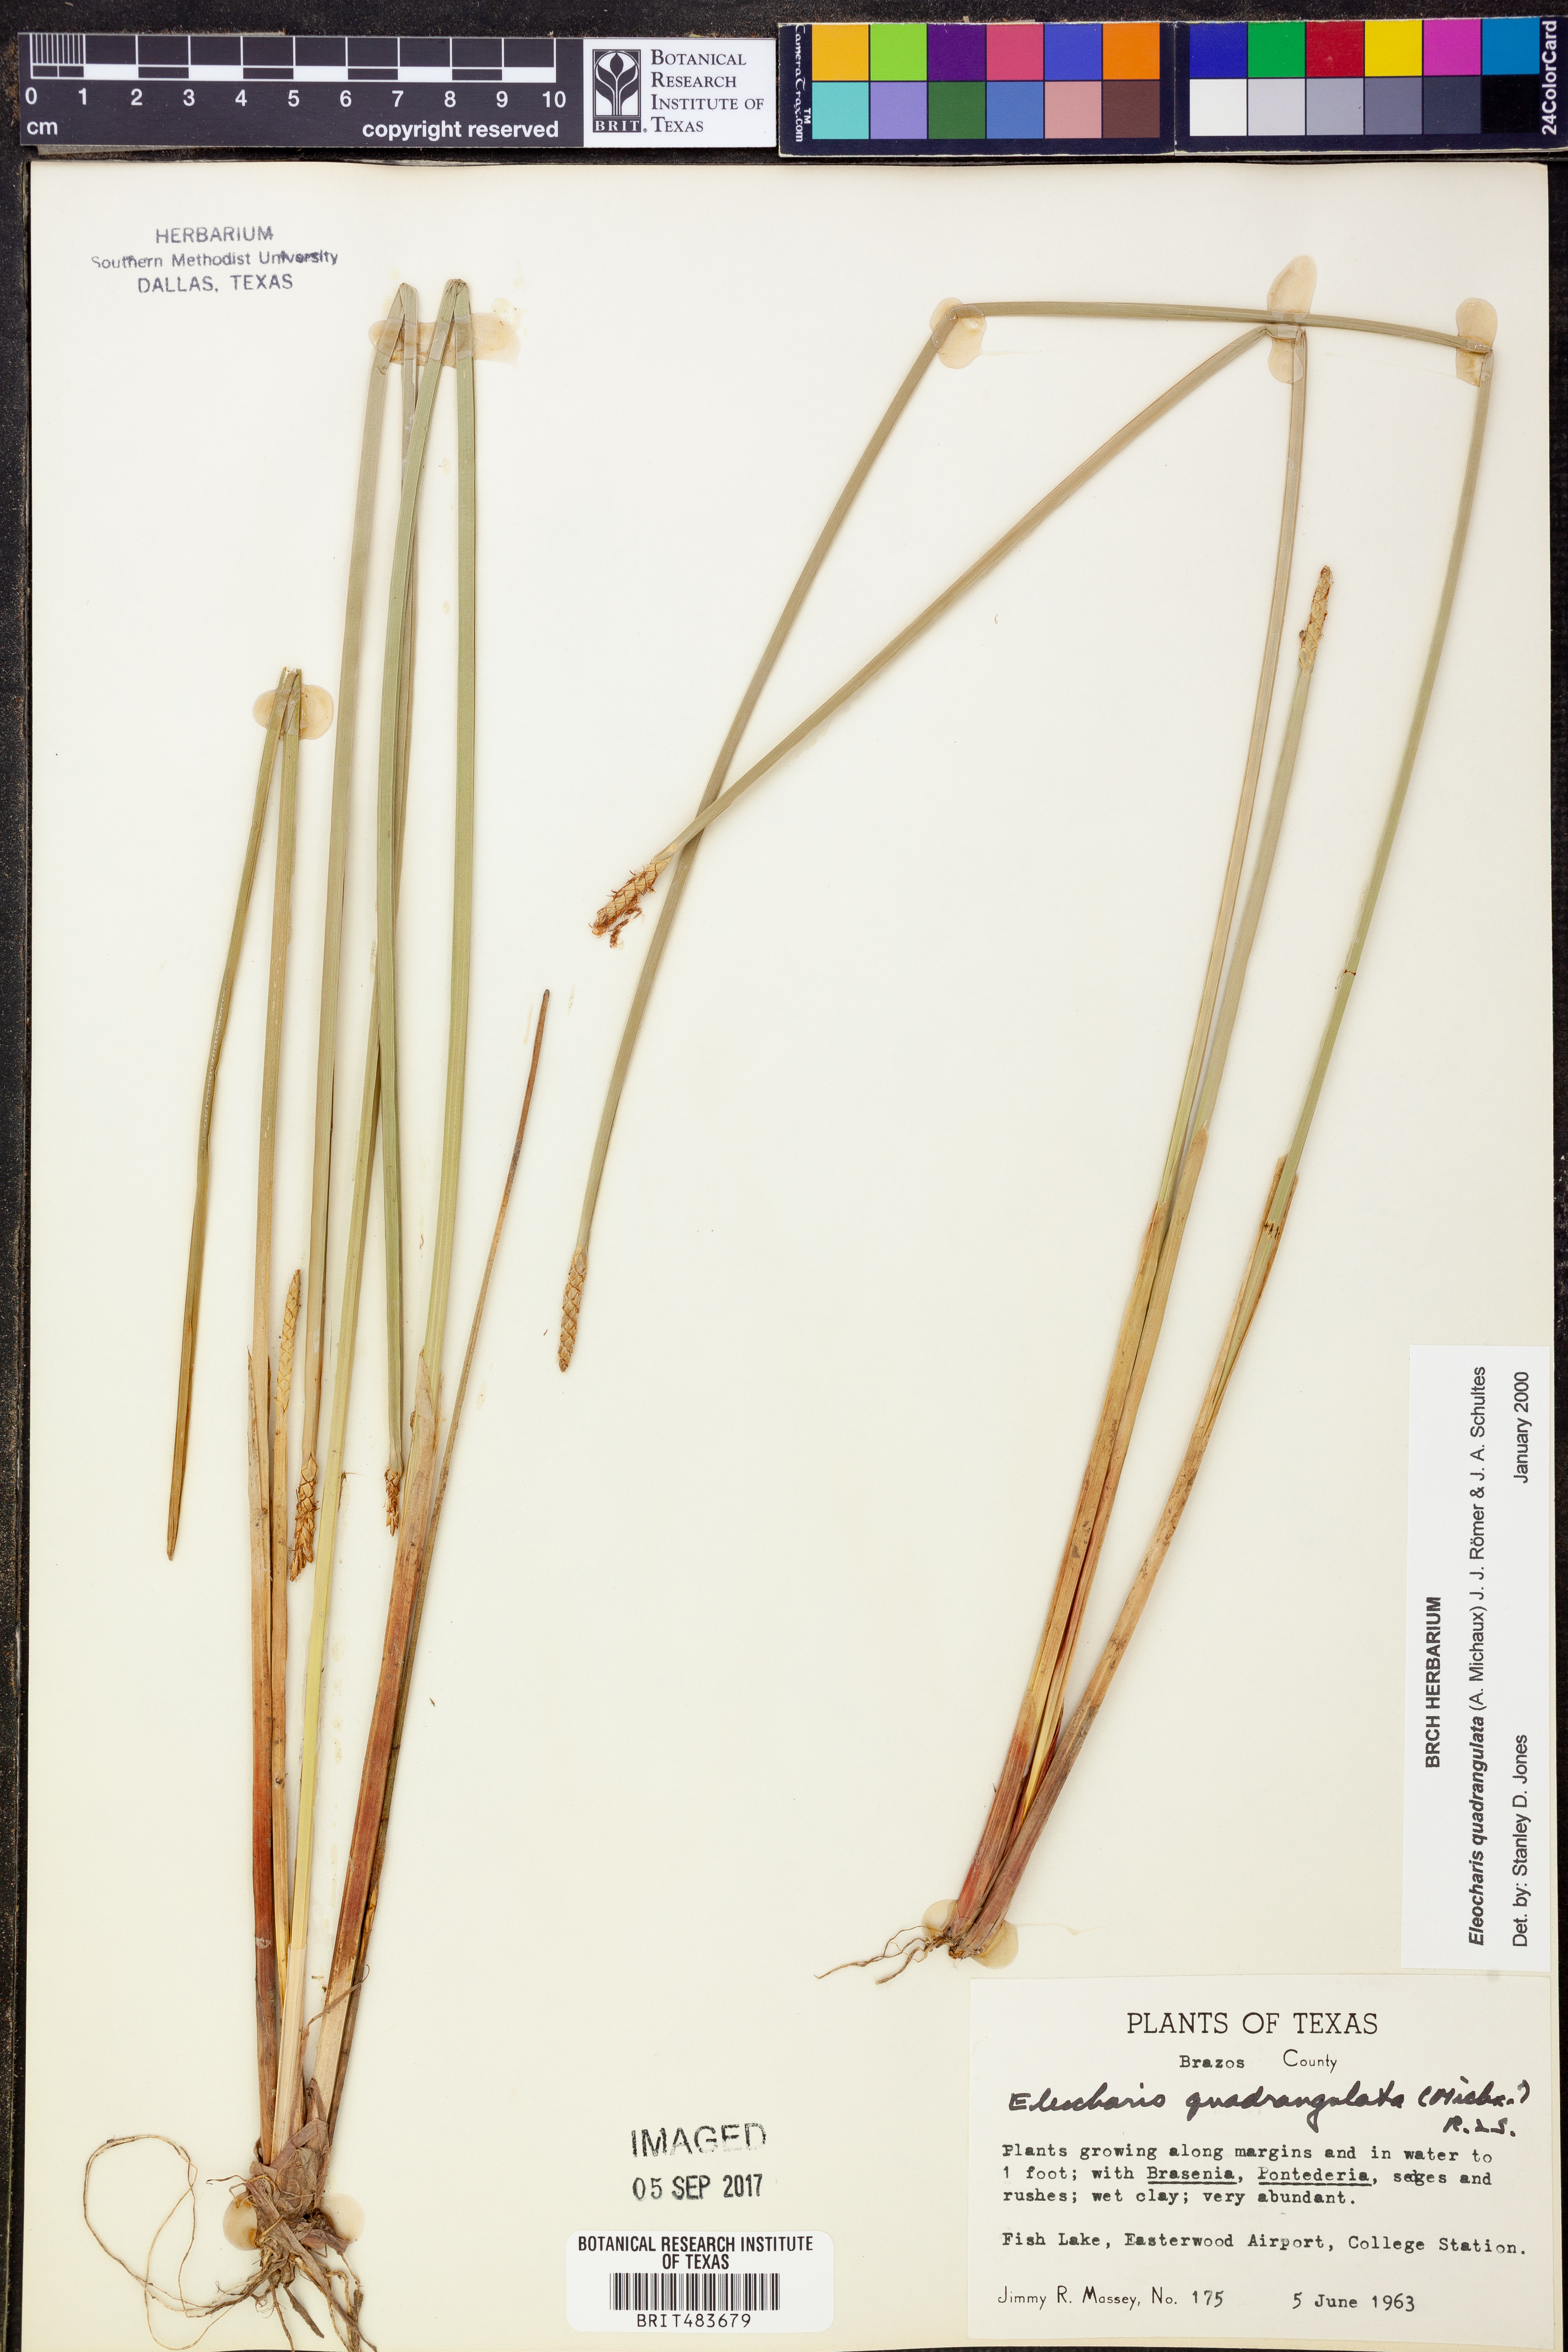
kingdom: Plantae
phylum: Tracheophyta
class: Liliopsida
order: Poales
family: Cyperaceae
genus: Eleocharis
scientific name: Eleocharis quadrangulata
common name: Square-stem spike-rush
